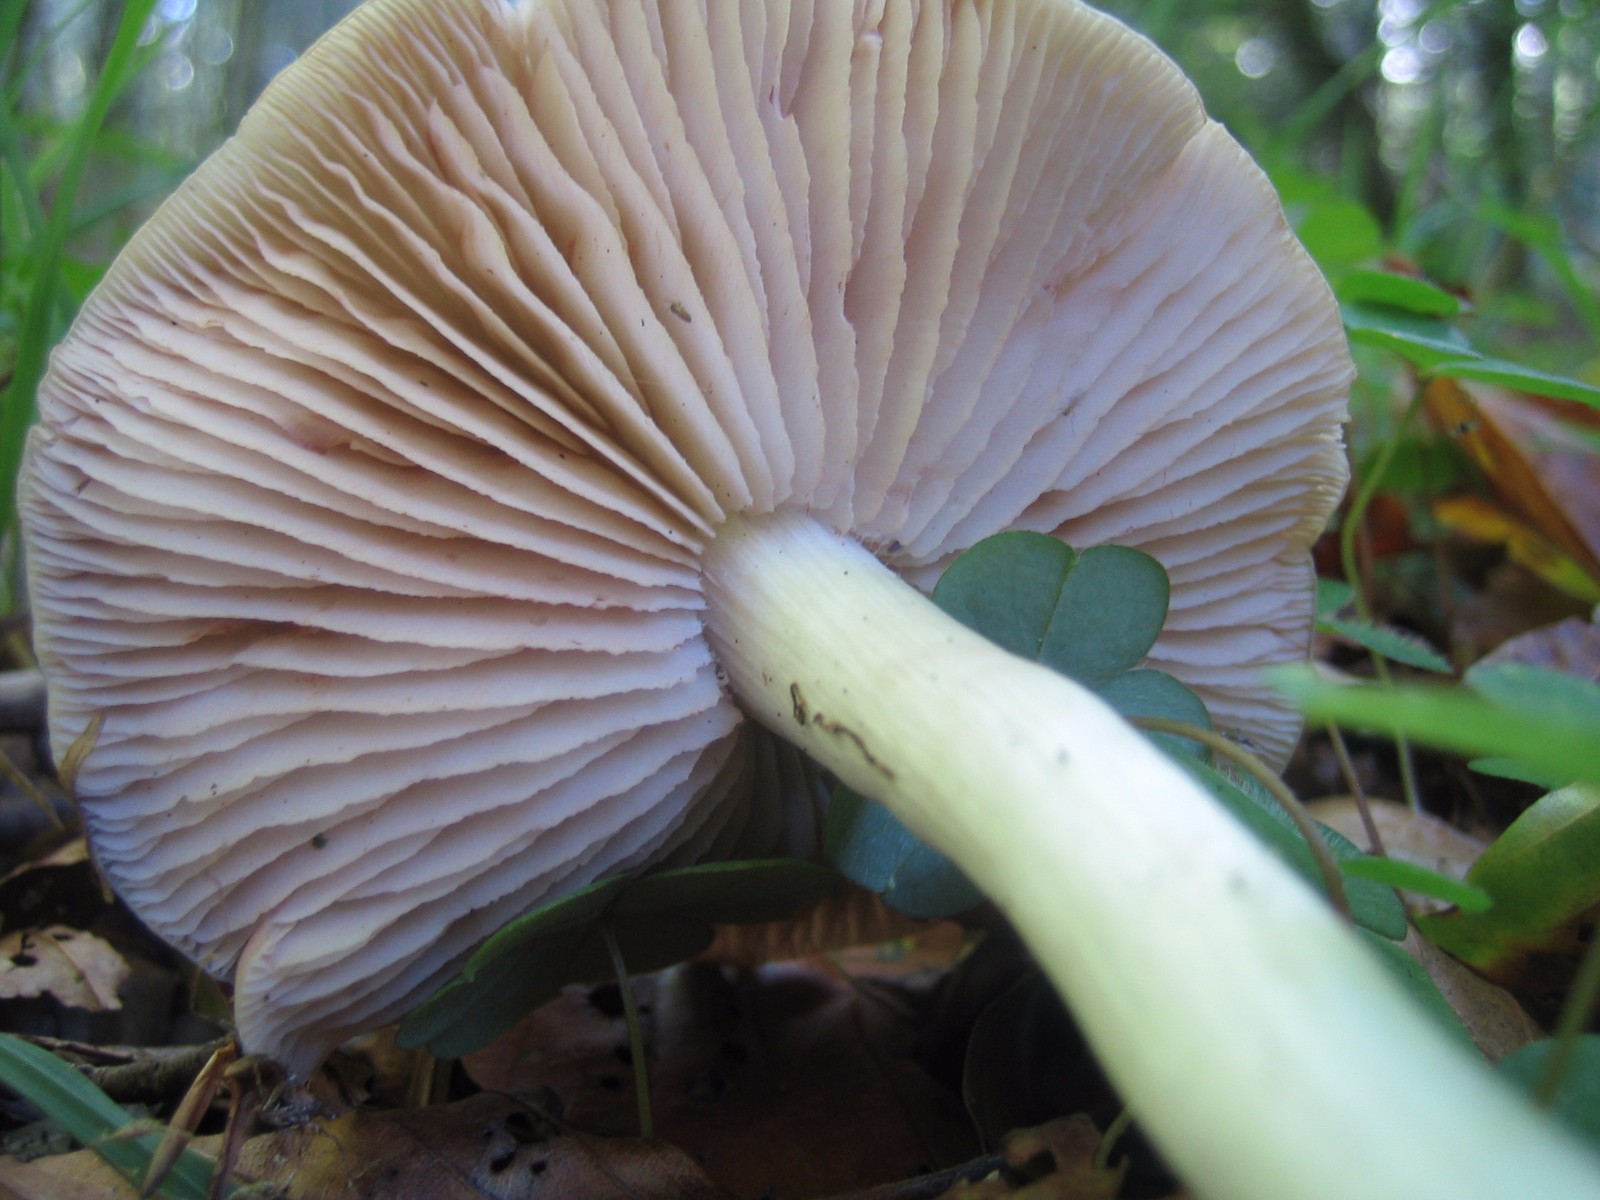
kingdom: Fungi
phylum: Basidiomycota
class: Agaricomycetes
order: Agaricales
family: Entolomataceae
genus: Entoloma
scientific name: Entoloma
